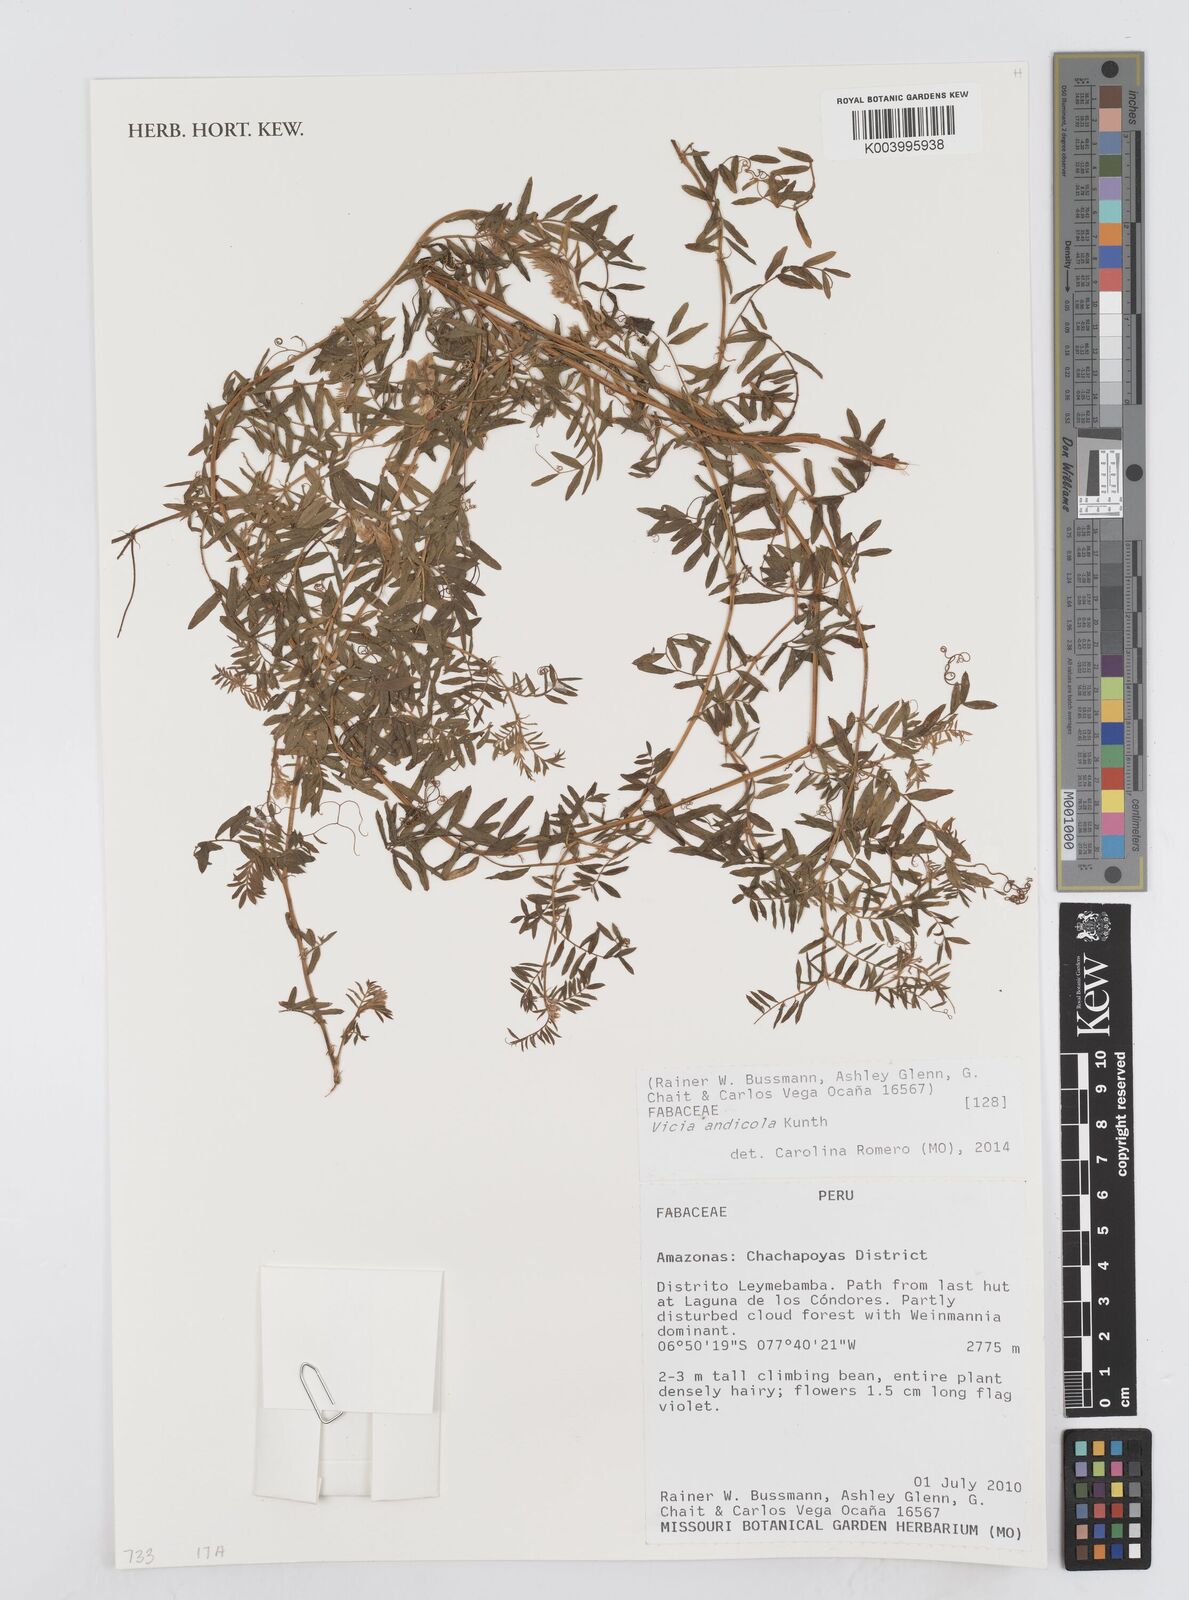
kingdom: Plantae
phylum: Tracheophyta
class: Magnoliopsida
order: Fabales
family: Fabaceae
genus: Vicia
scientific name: Vicia andicola
